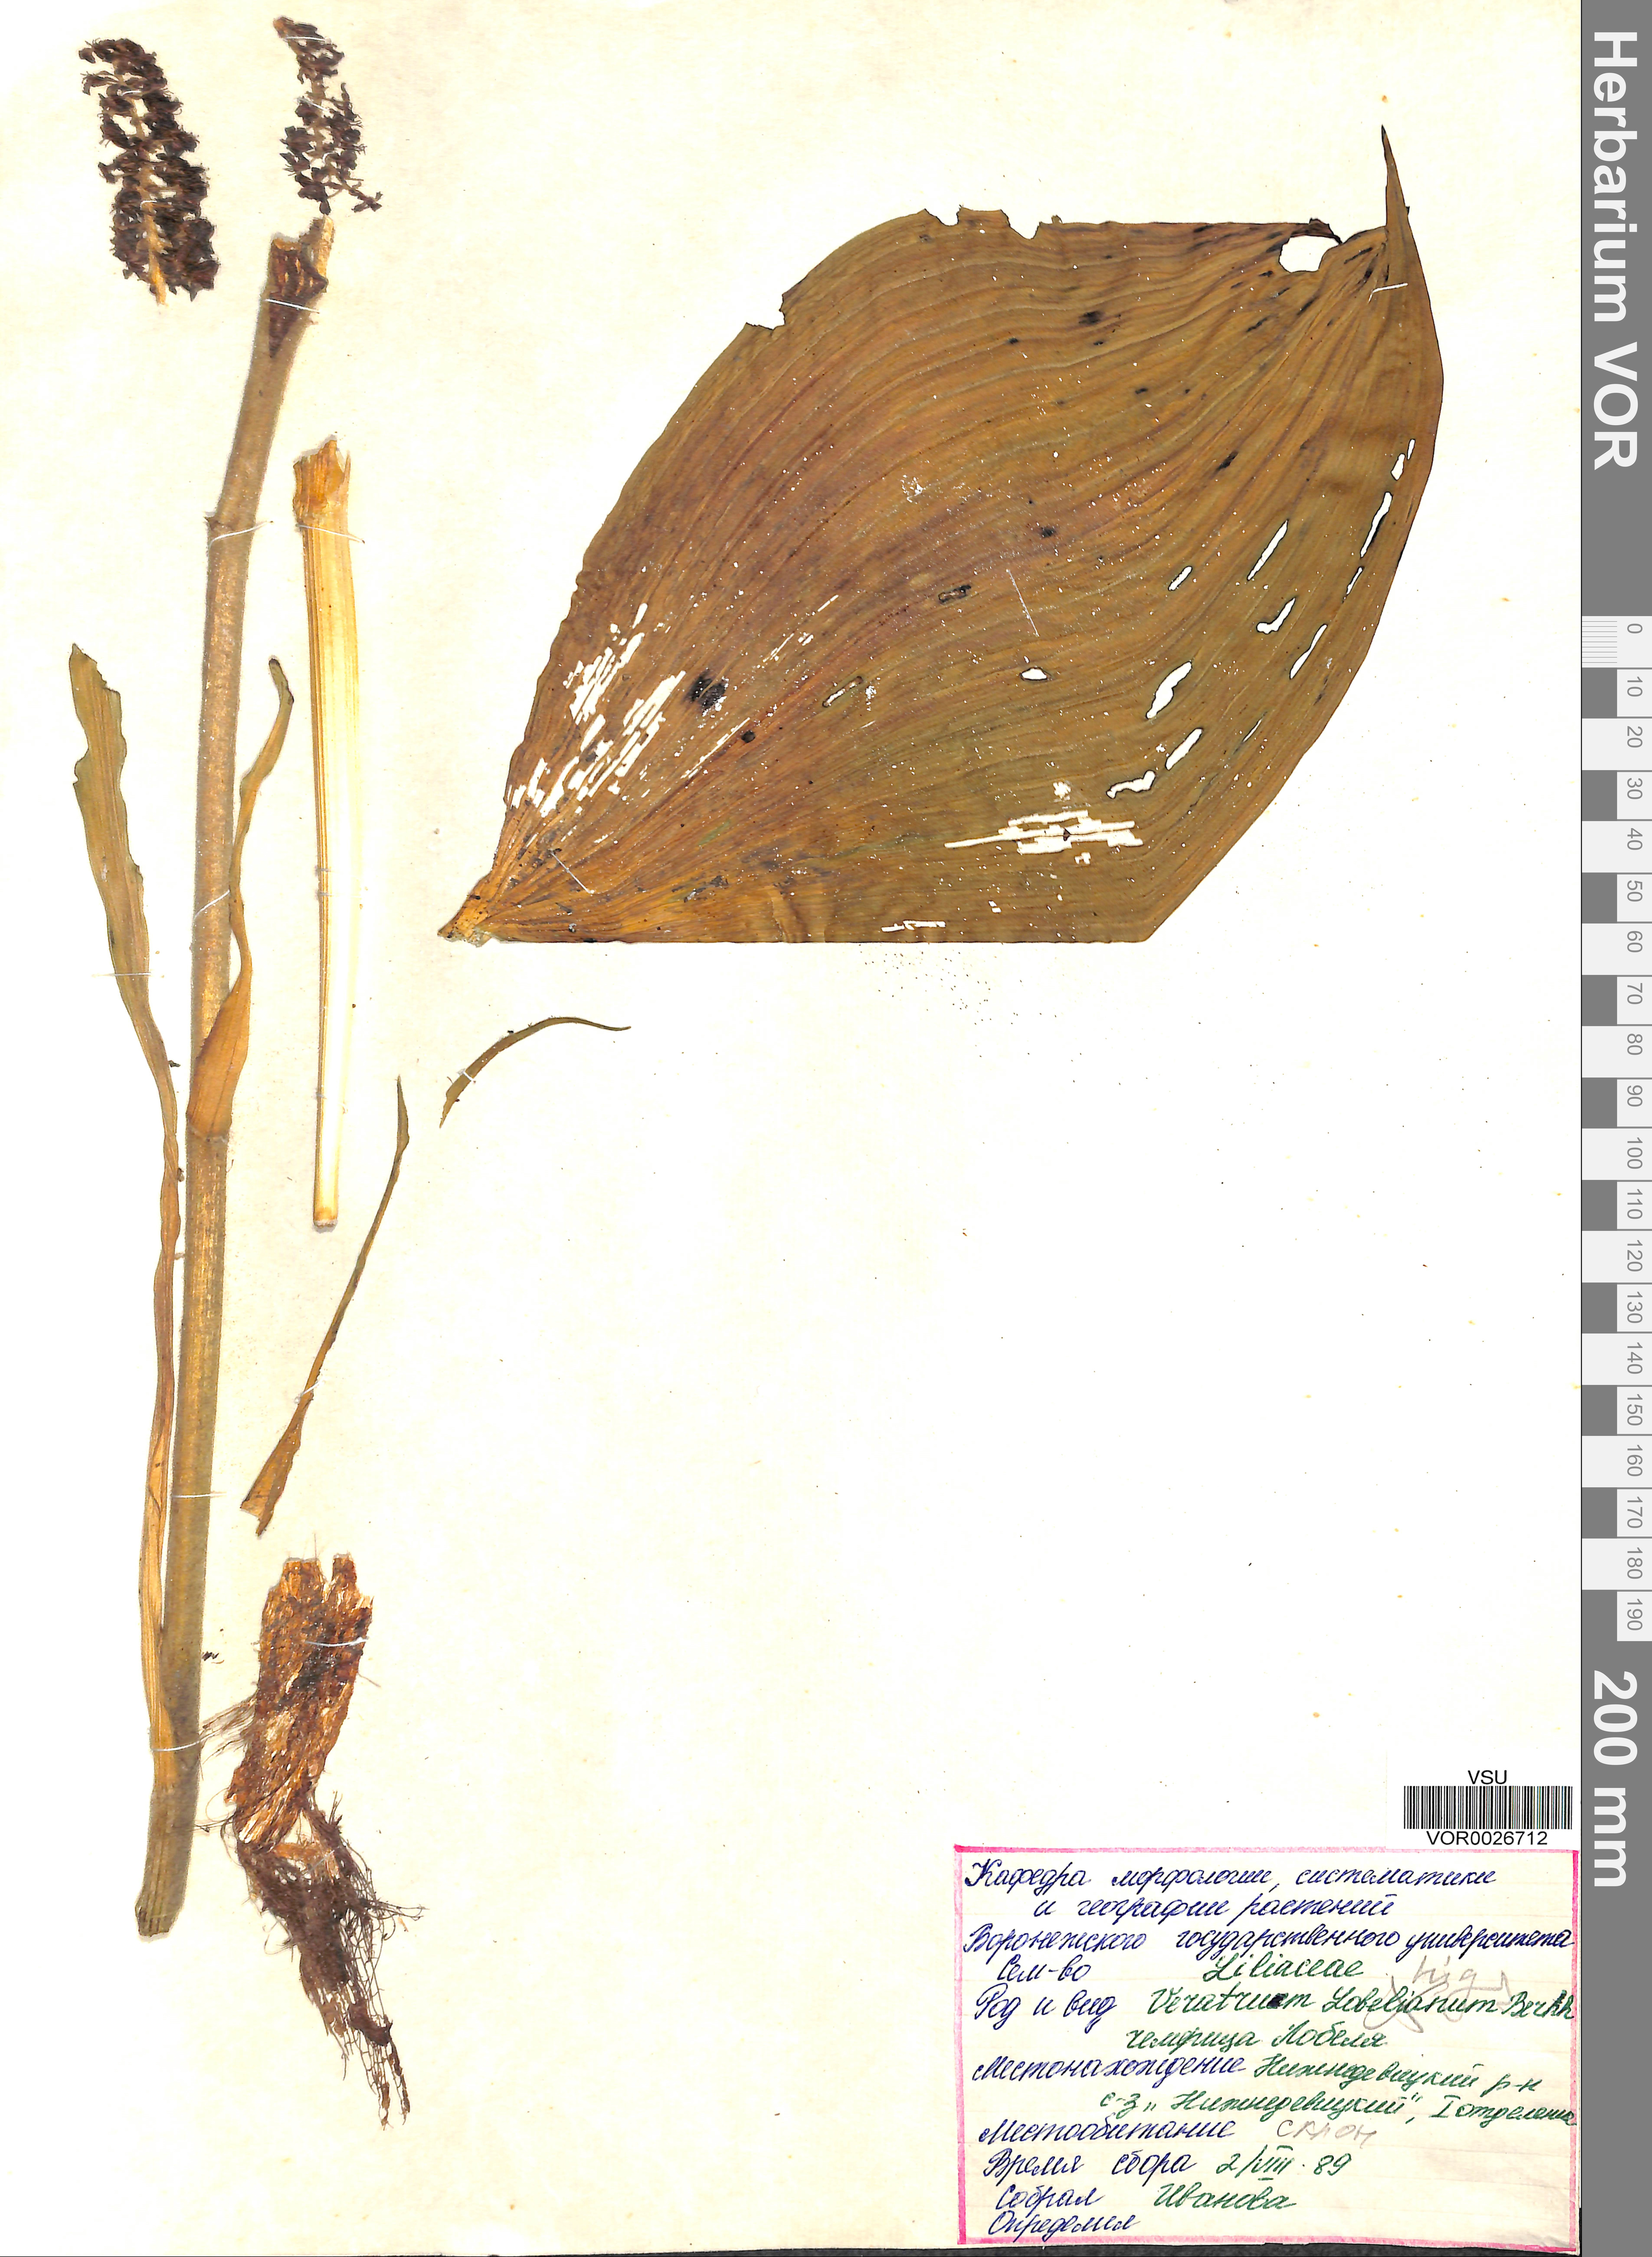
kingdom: Plantae
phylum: Tracheophyta
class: Liliopsida
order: Liliales
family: Melanthiaceae
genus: Veratrum
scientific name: Veratrum lobelianum
